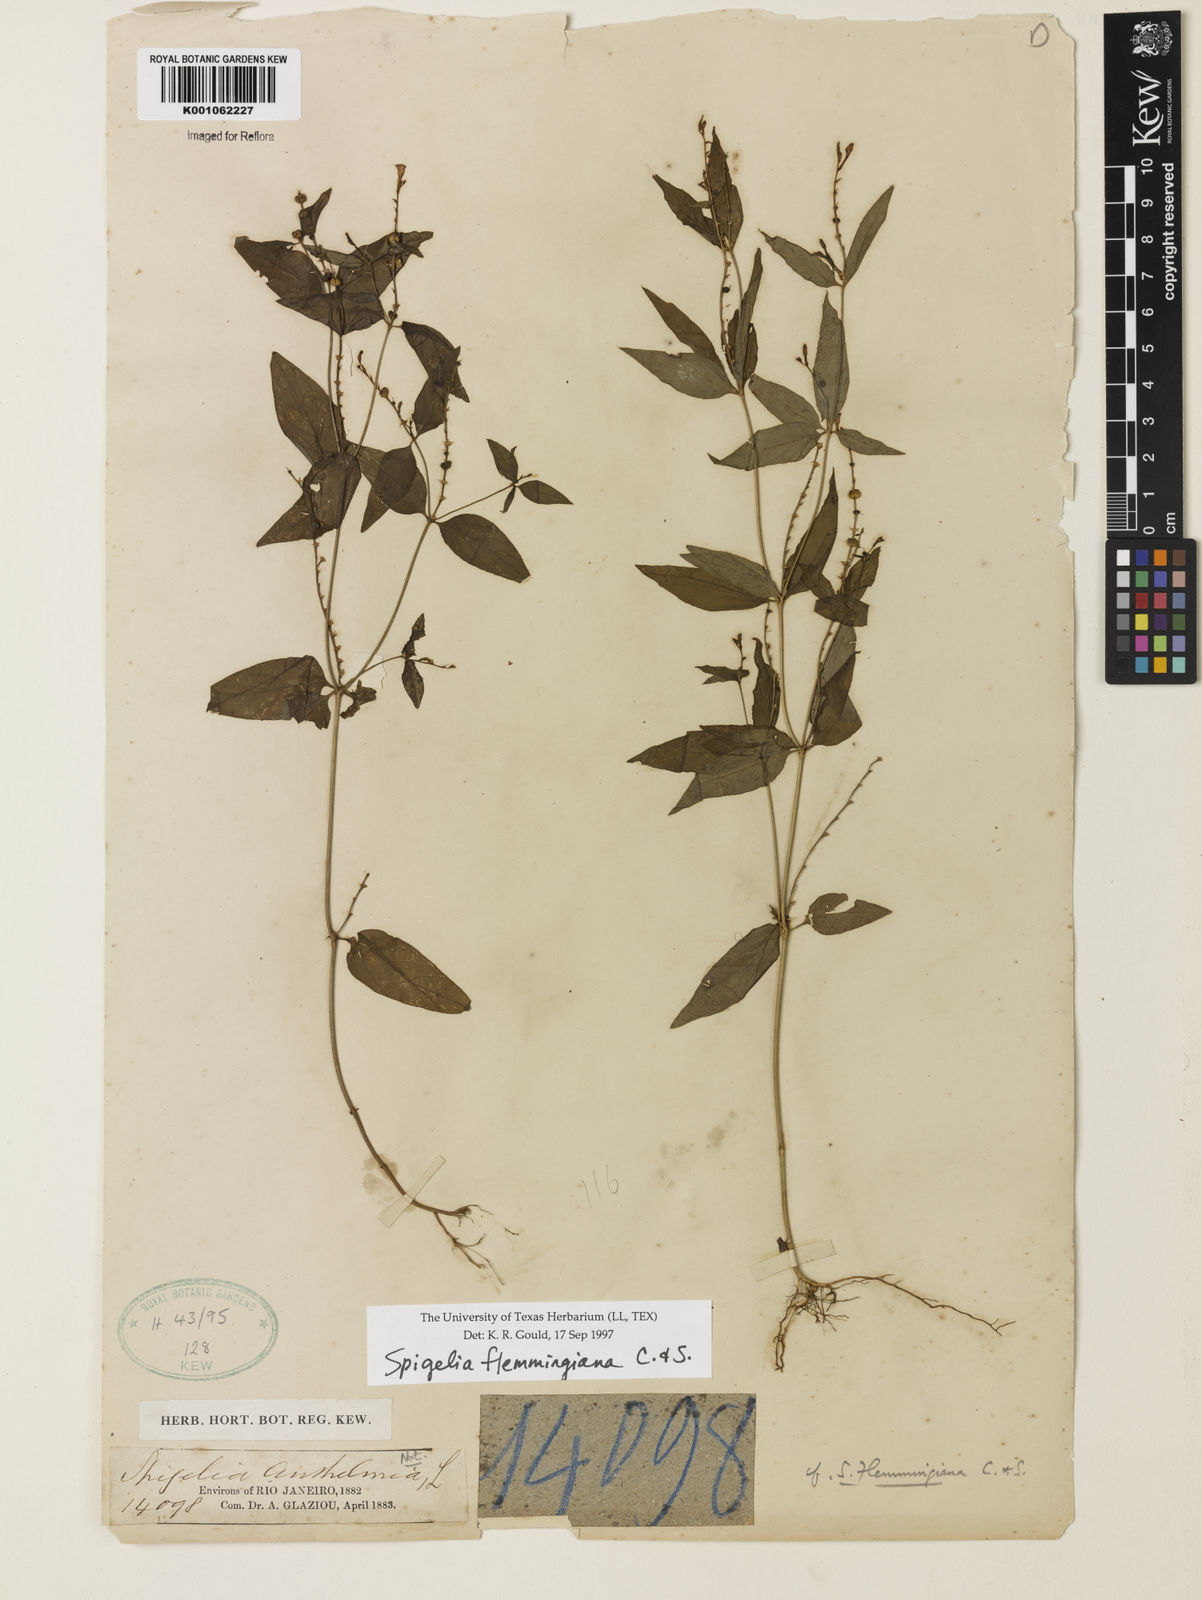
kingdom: Plantae
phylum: Tracheophyta
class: Magnoliopsida
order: Gentianales
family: Loganiaceae
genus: Spigelia
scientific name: Spigelia flemmingiana
